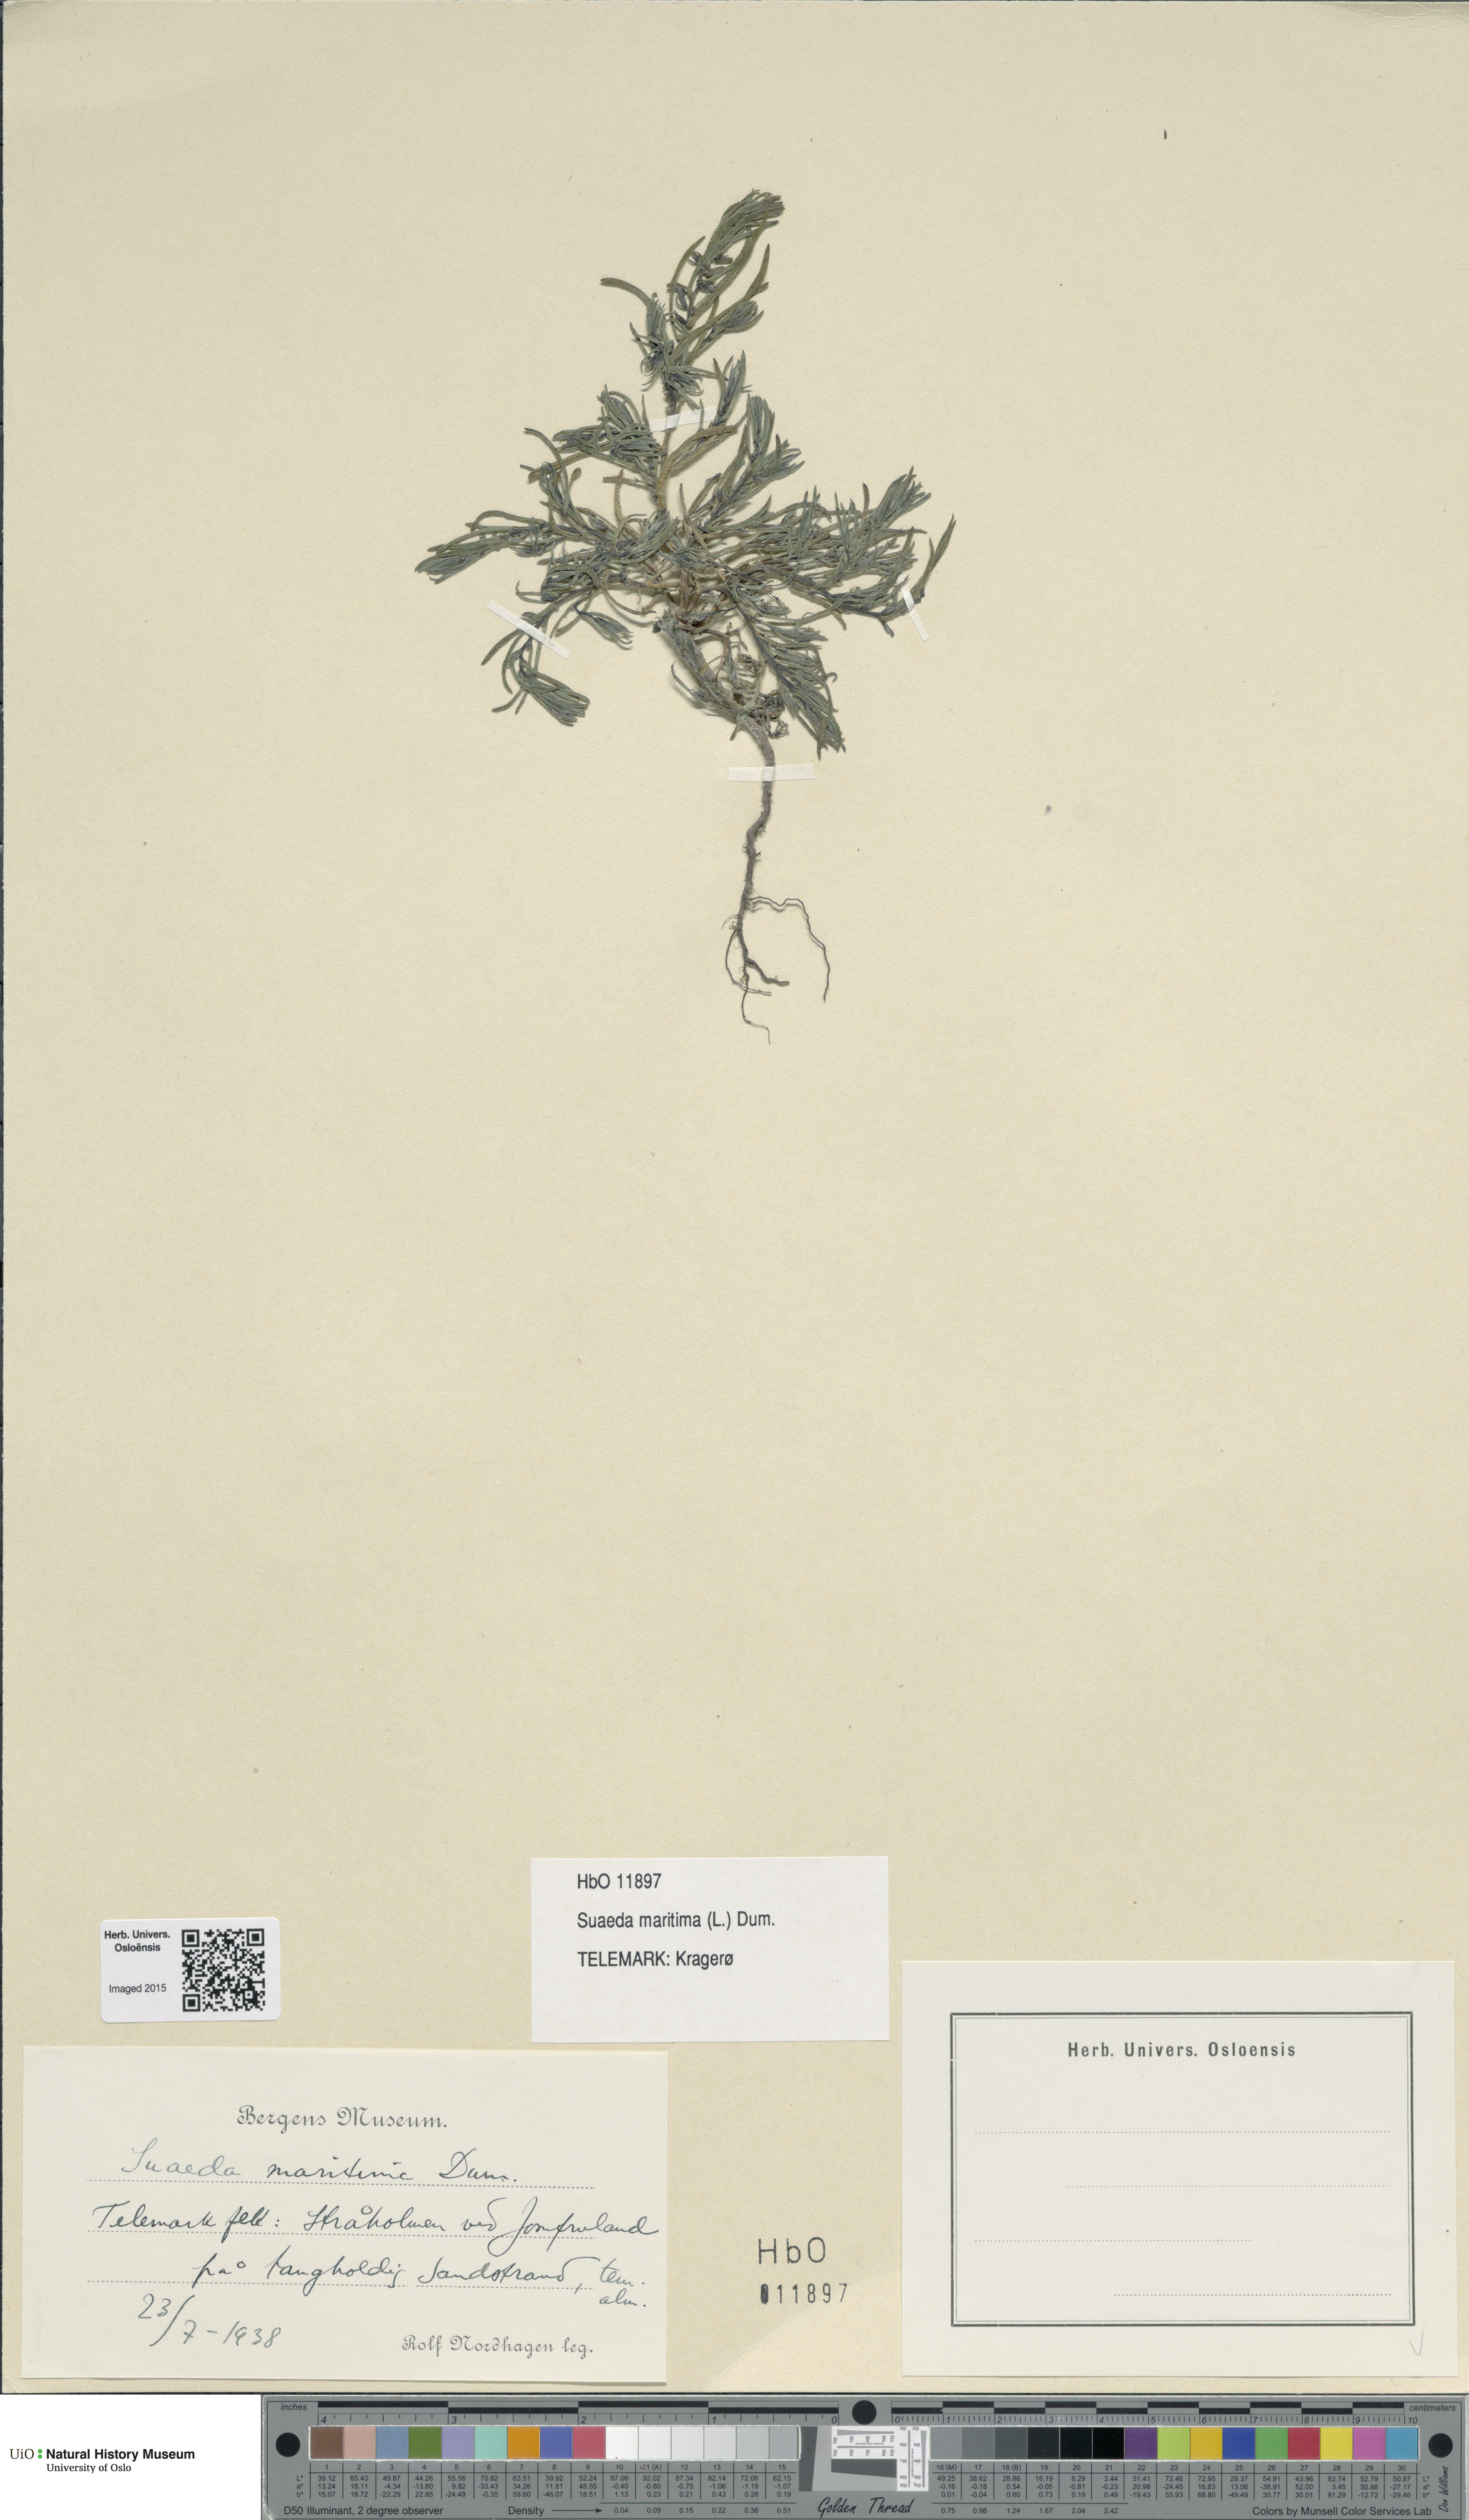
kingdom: Plantae
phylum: Tracheophyta
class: Magnoliopsida
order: Caryophyllales
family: Amaranthaceae
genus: Suaeda
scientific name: Suaeda maritima
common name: Annual sea-blite
